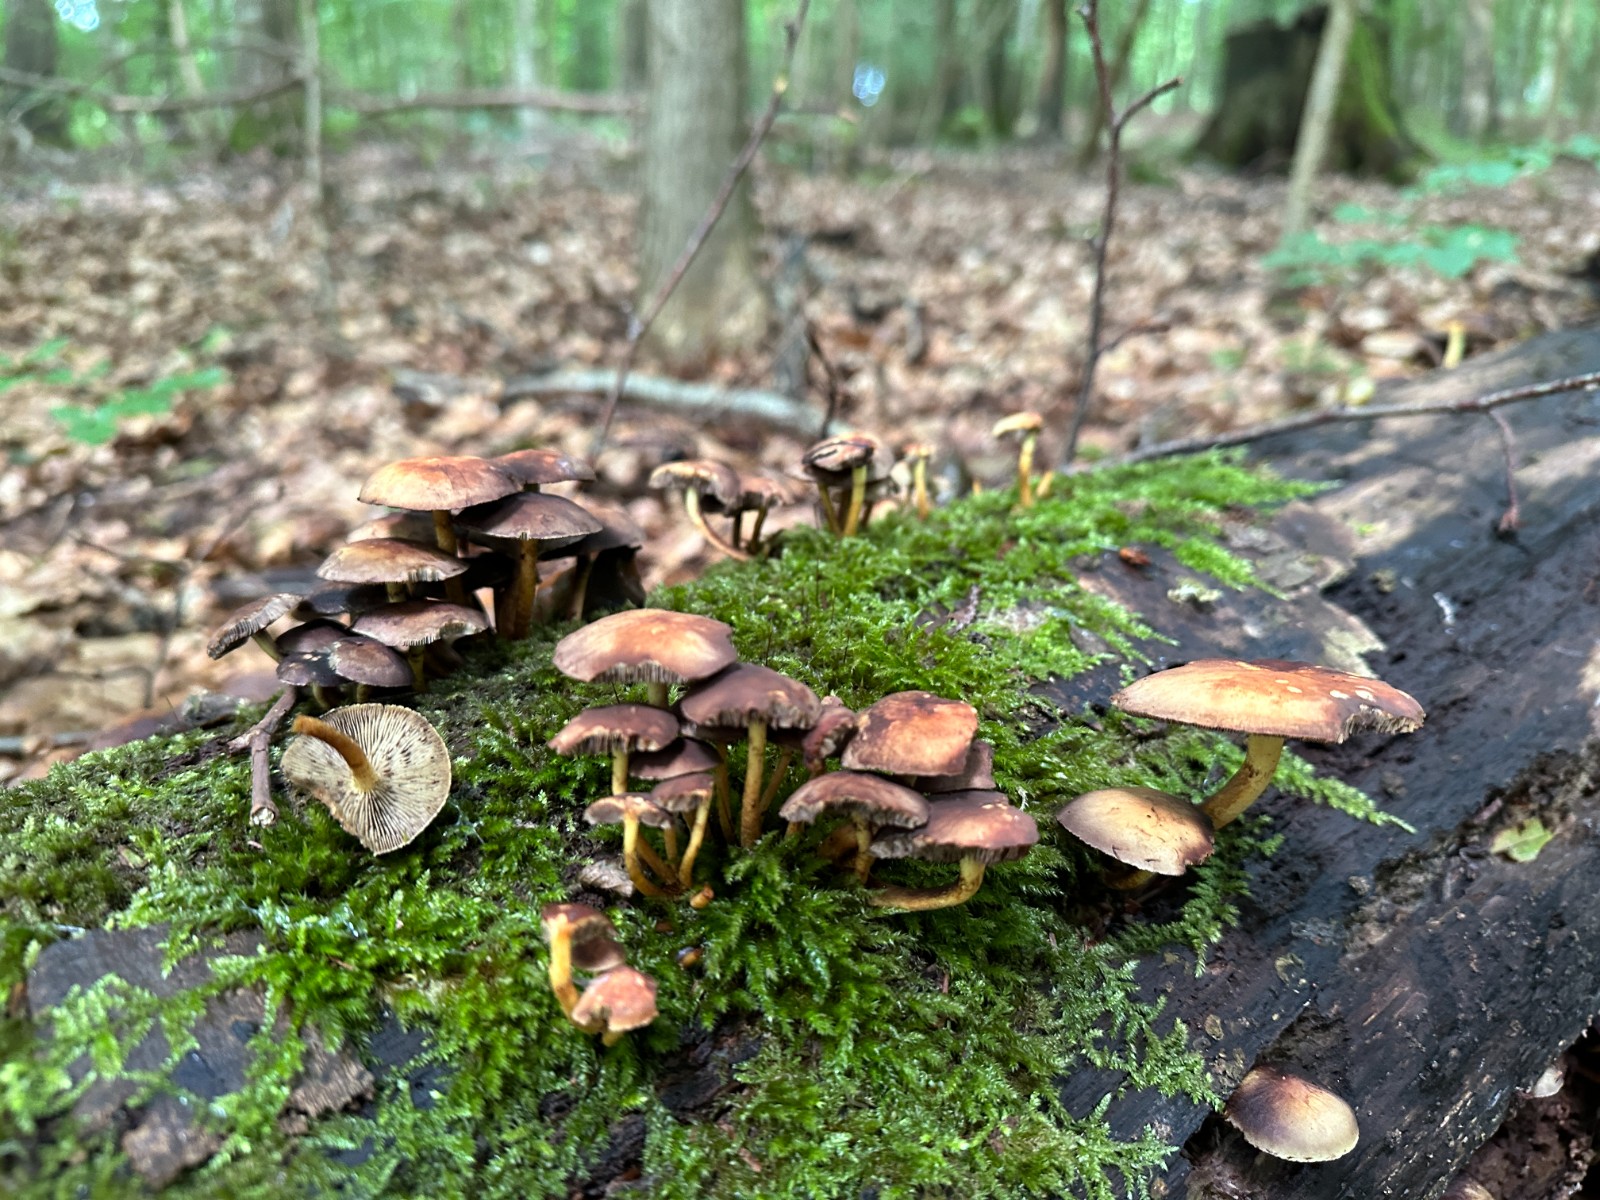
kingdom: Fungi
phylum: Basidiomycota
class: Agaricomycetes
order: Agaricales
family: Strophariaceae
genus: Hypholoma
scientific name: Hypholoma fasciculare
